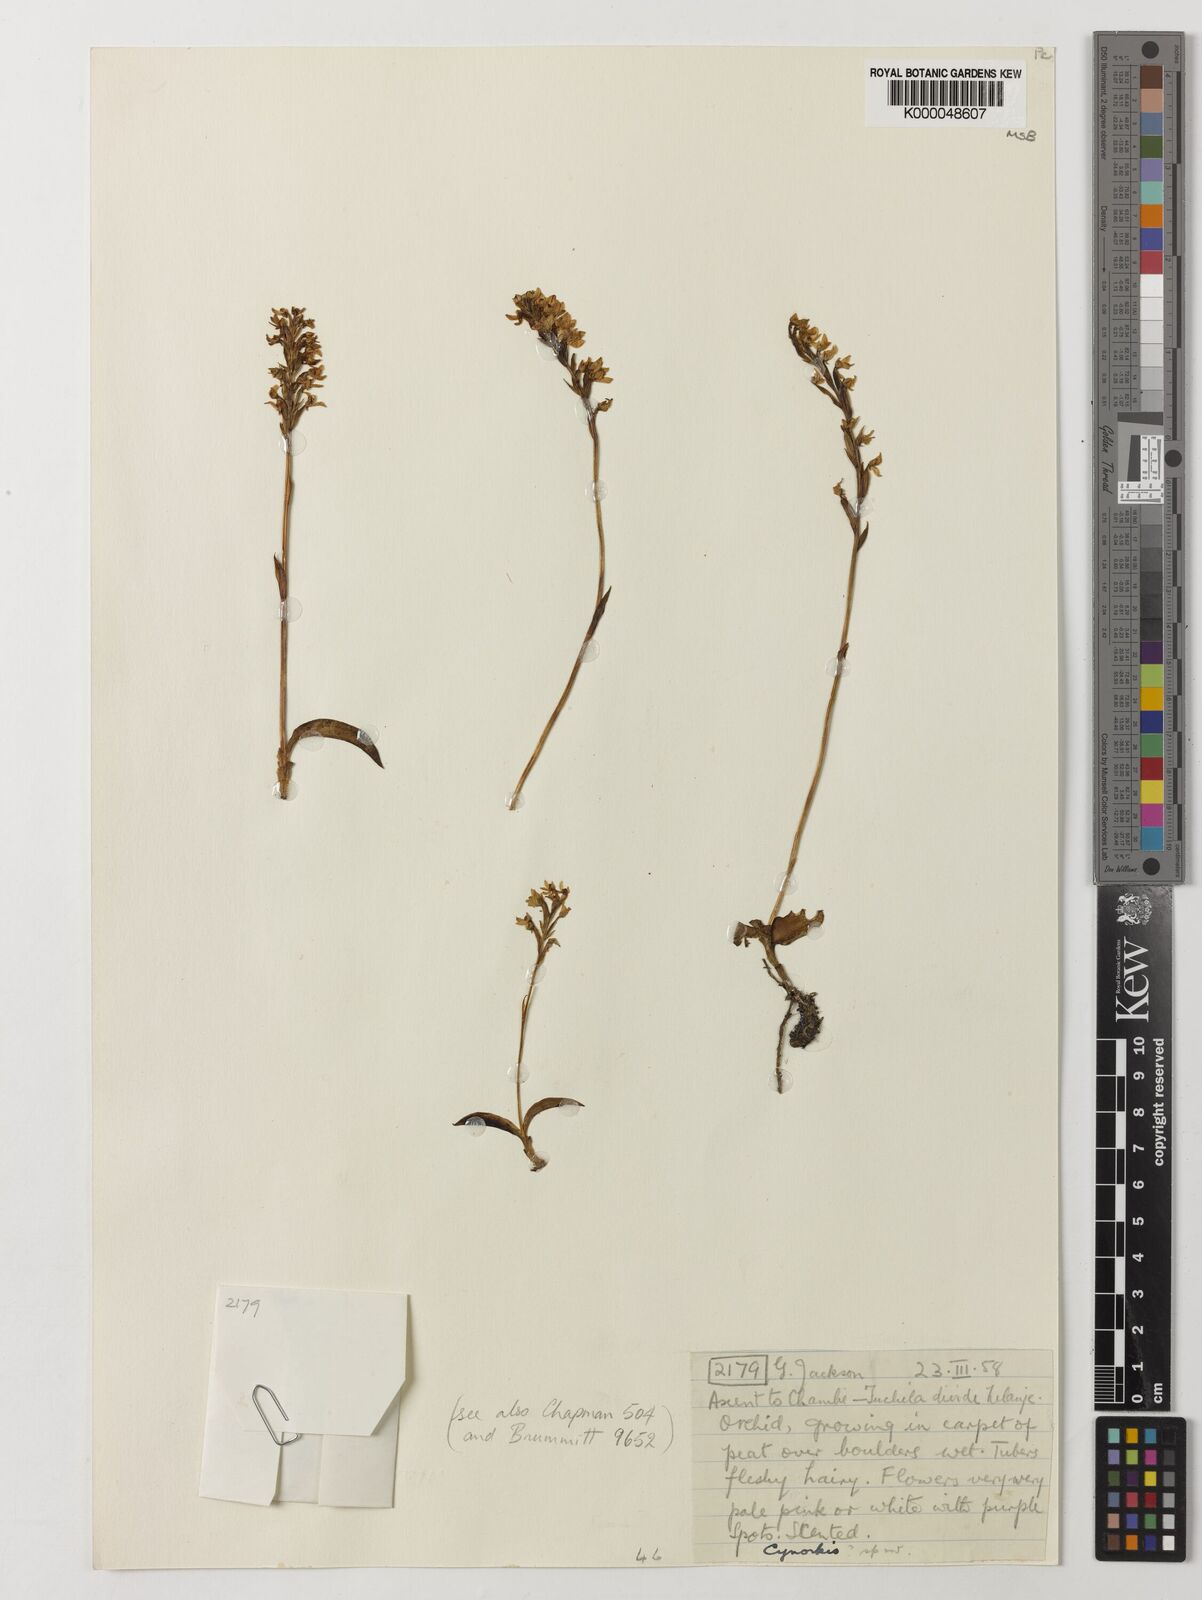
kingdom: Plantae
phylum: Tracheophyta
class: Liliopsida
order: Asparagales
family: Orchidaceae
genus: Cynorkis
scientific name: Cynorkis brevicalcar
